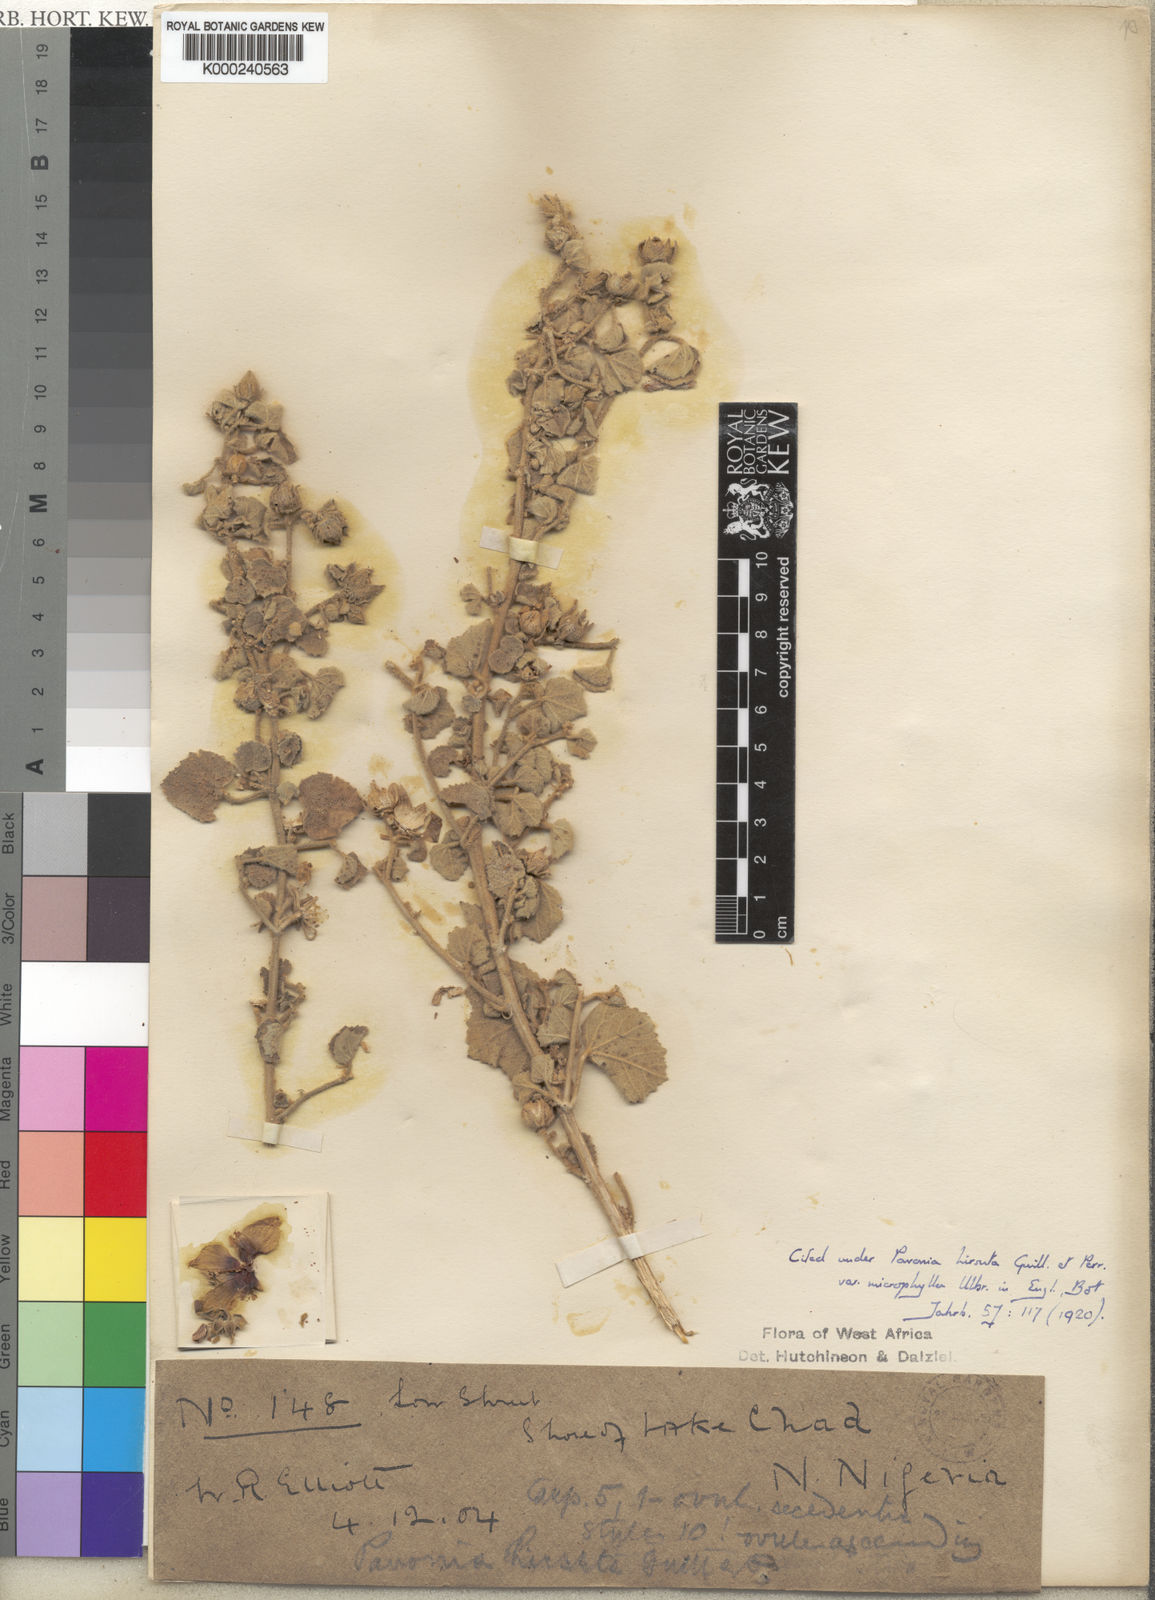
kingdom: Plantae
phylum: Tracheophyta
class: Magnoliopsida
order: Malvales
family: Malvaceae
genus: Pavonia
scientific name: Pavonia senegalensis
